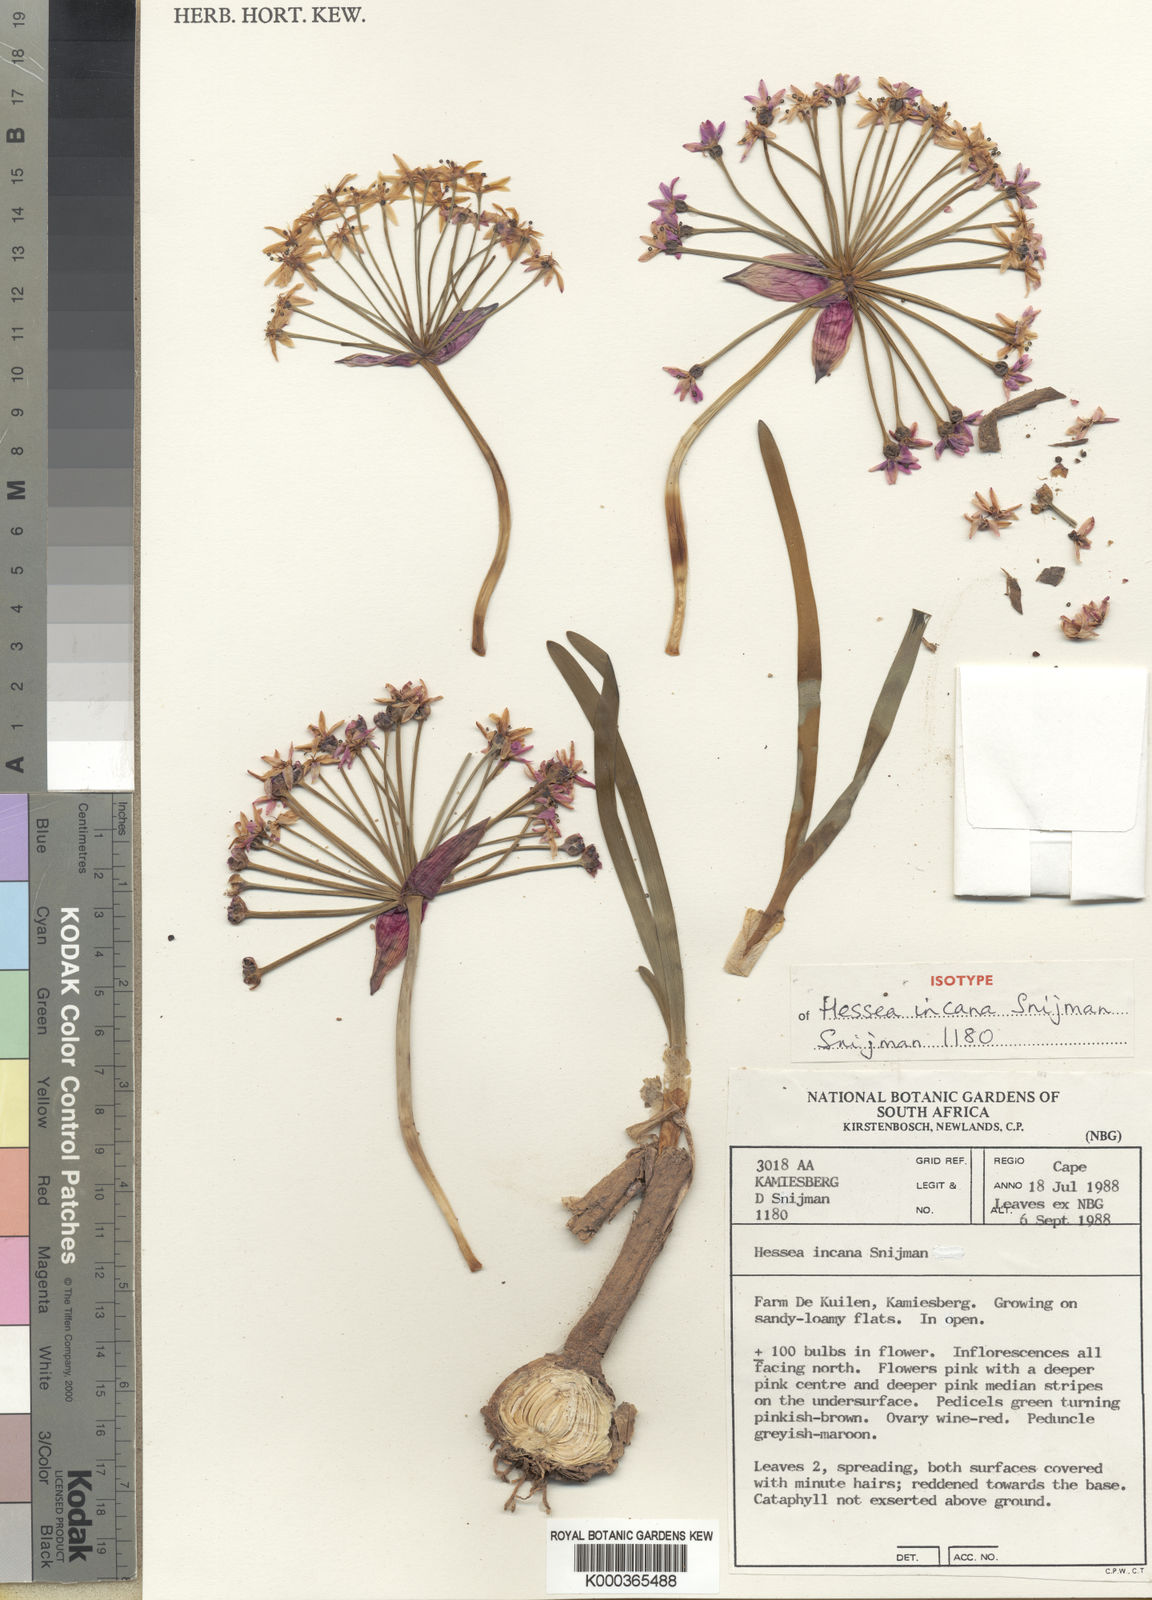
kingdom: Plantae
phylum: Tracheophyta
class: Liliopsida
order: Asparagales
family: Amaryllidaceae
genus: Hessea
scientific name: Hessea incana
